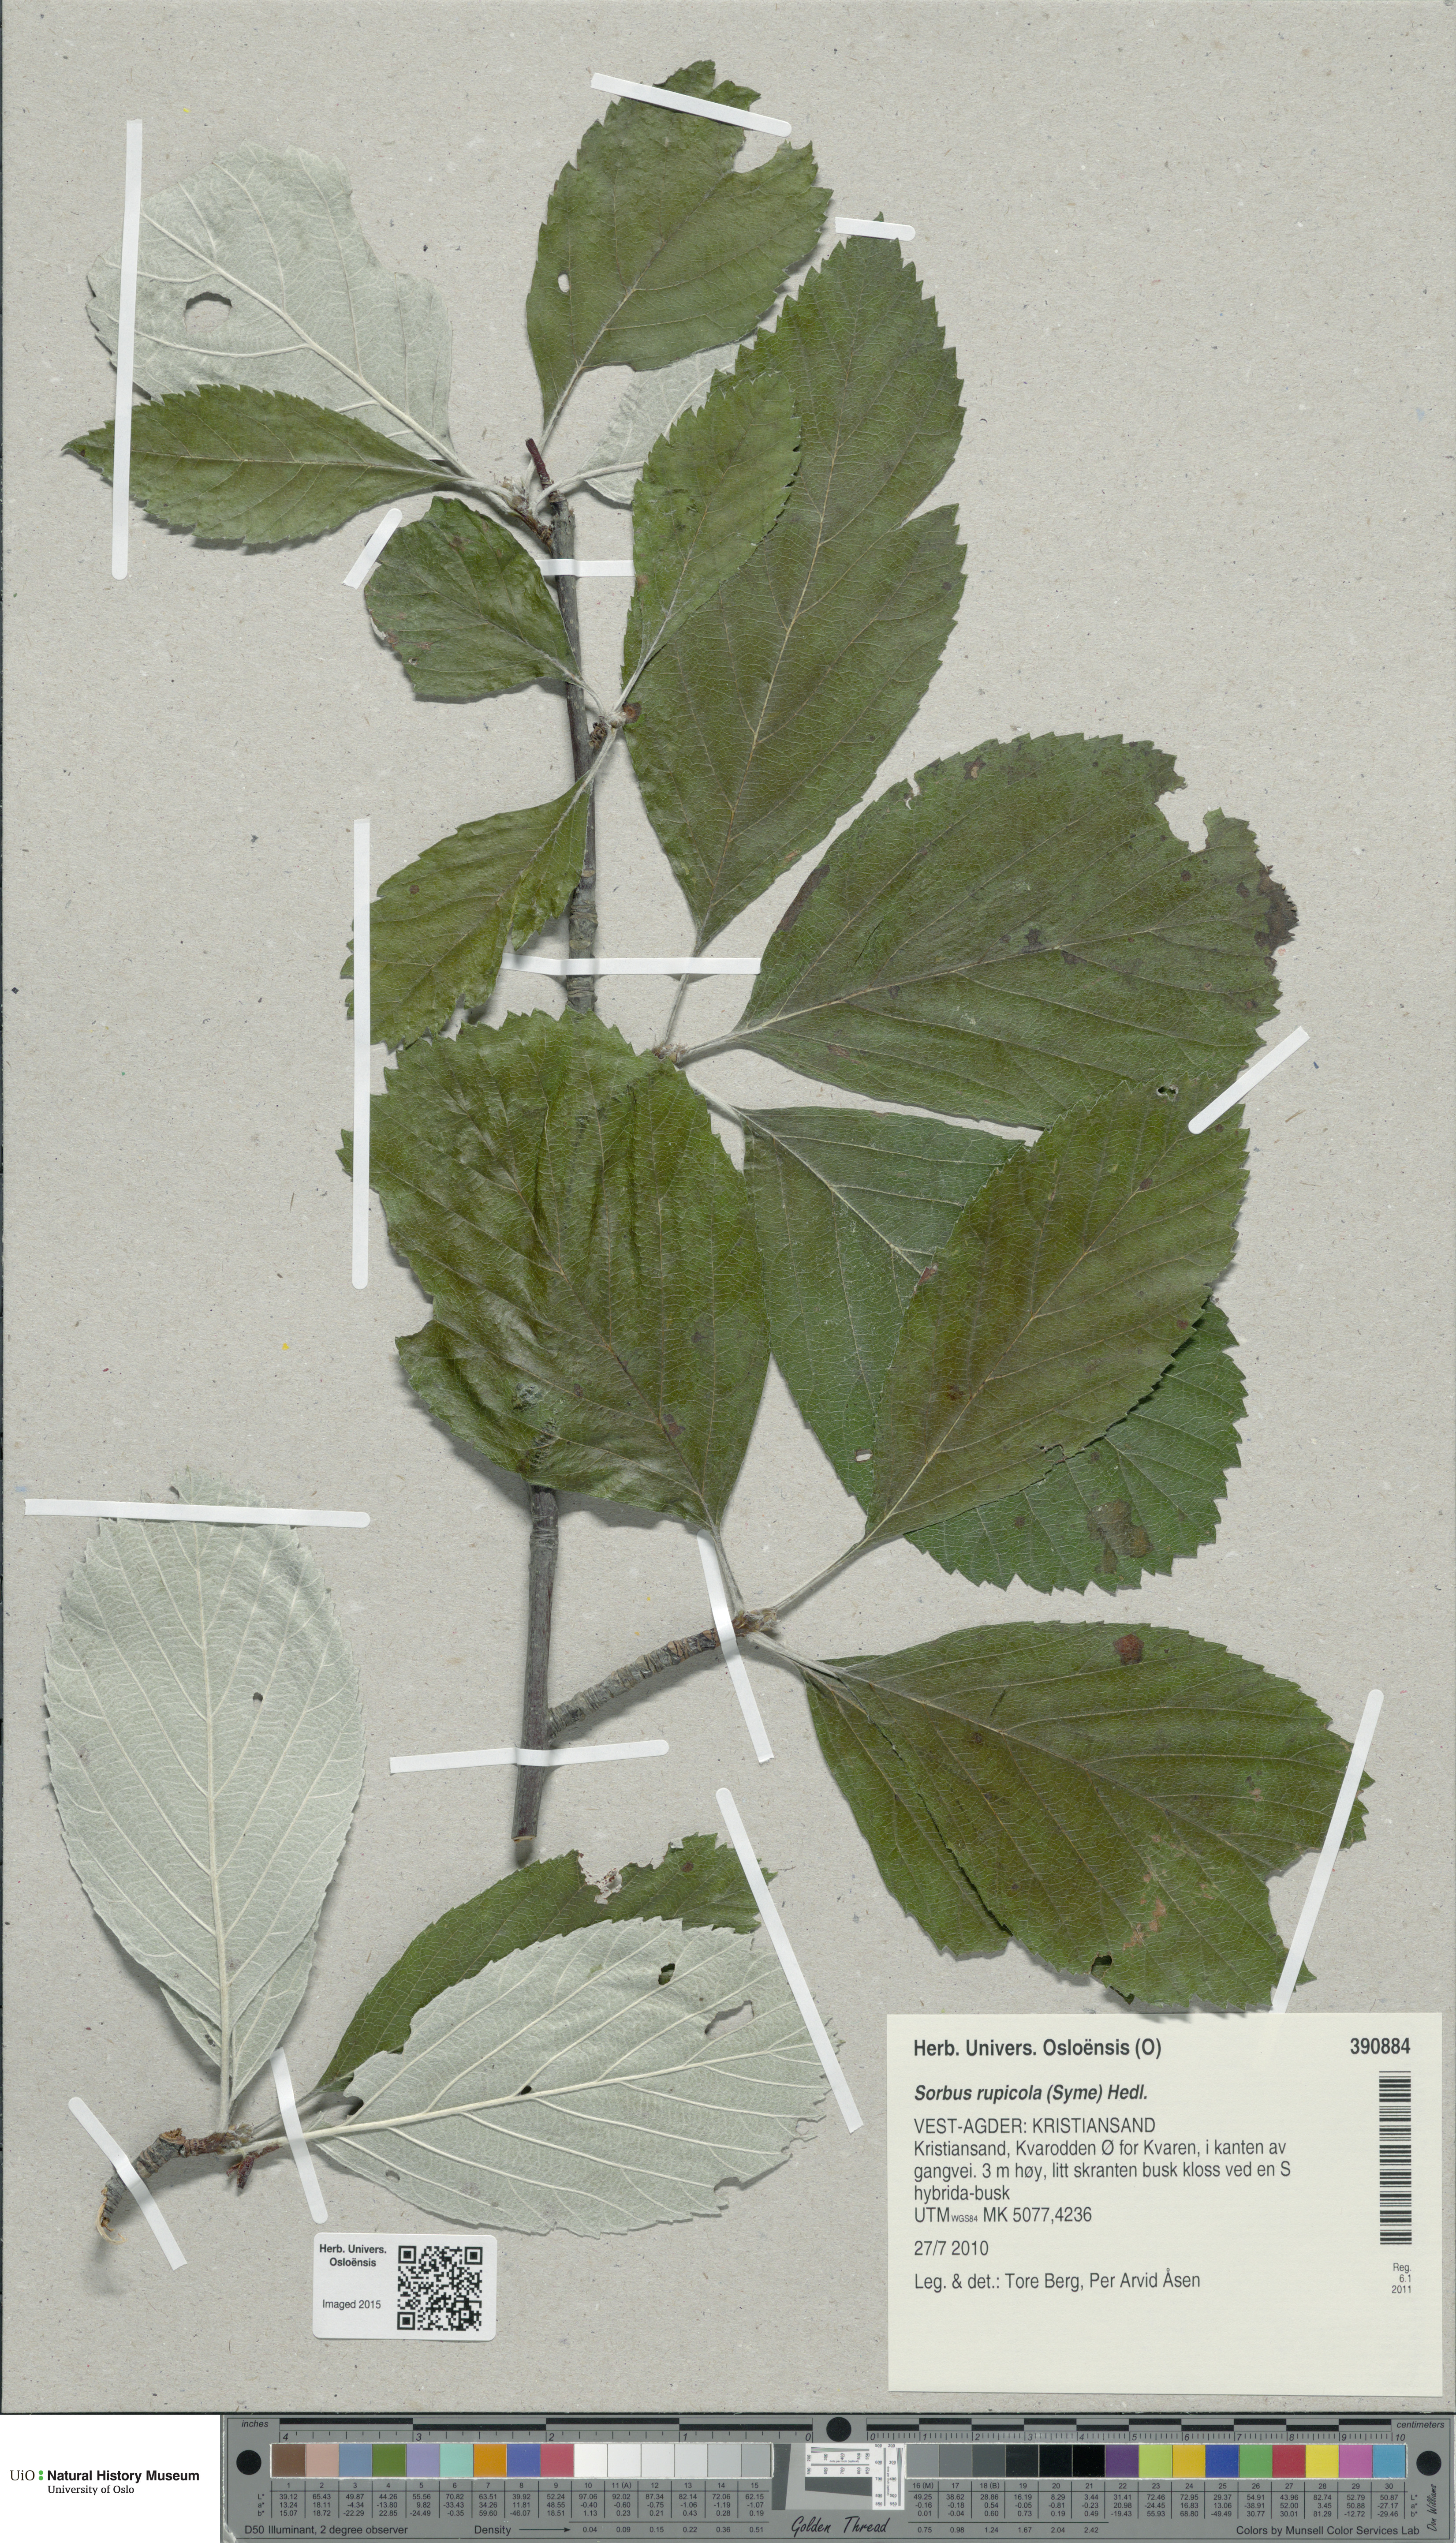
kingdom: Plantae
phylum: Tracheophyta
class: Magnoliopsida
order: Rosales
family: Rosaceae
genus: Aria
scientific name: Aria rupicola
